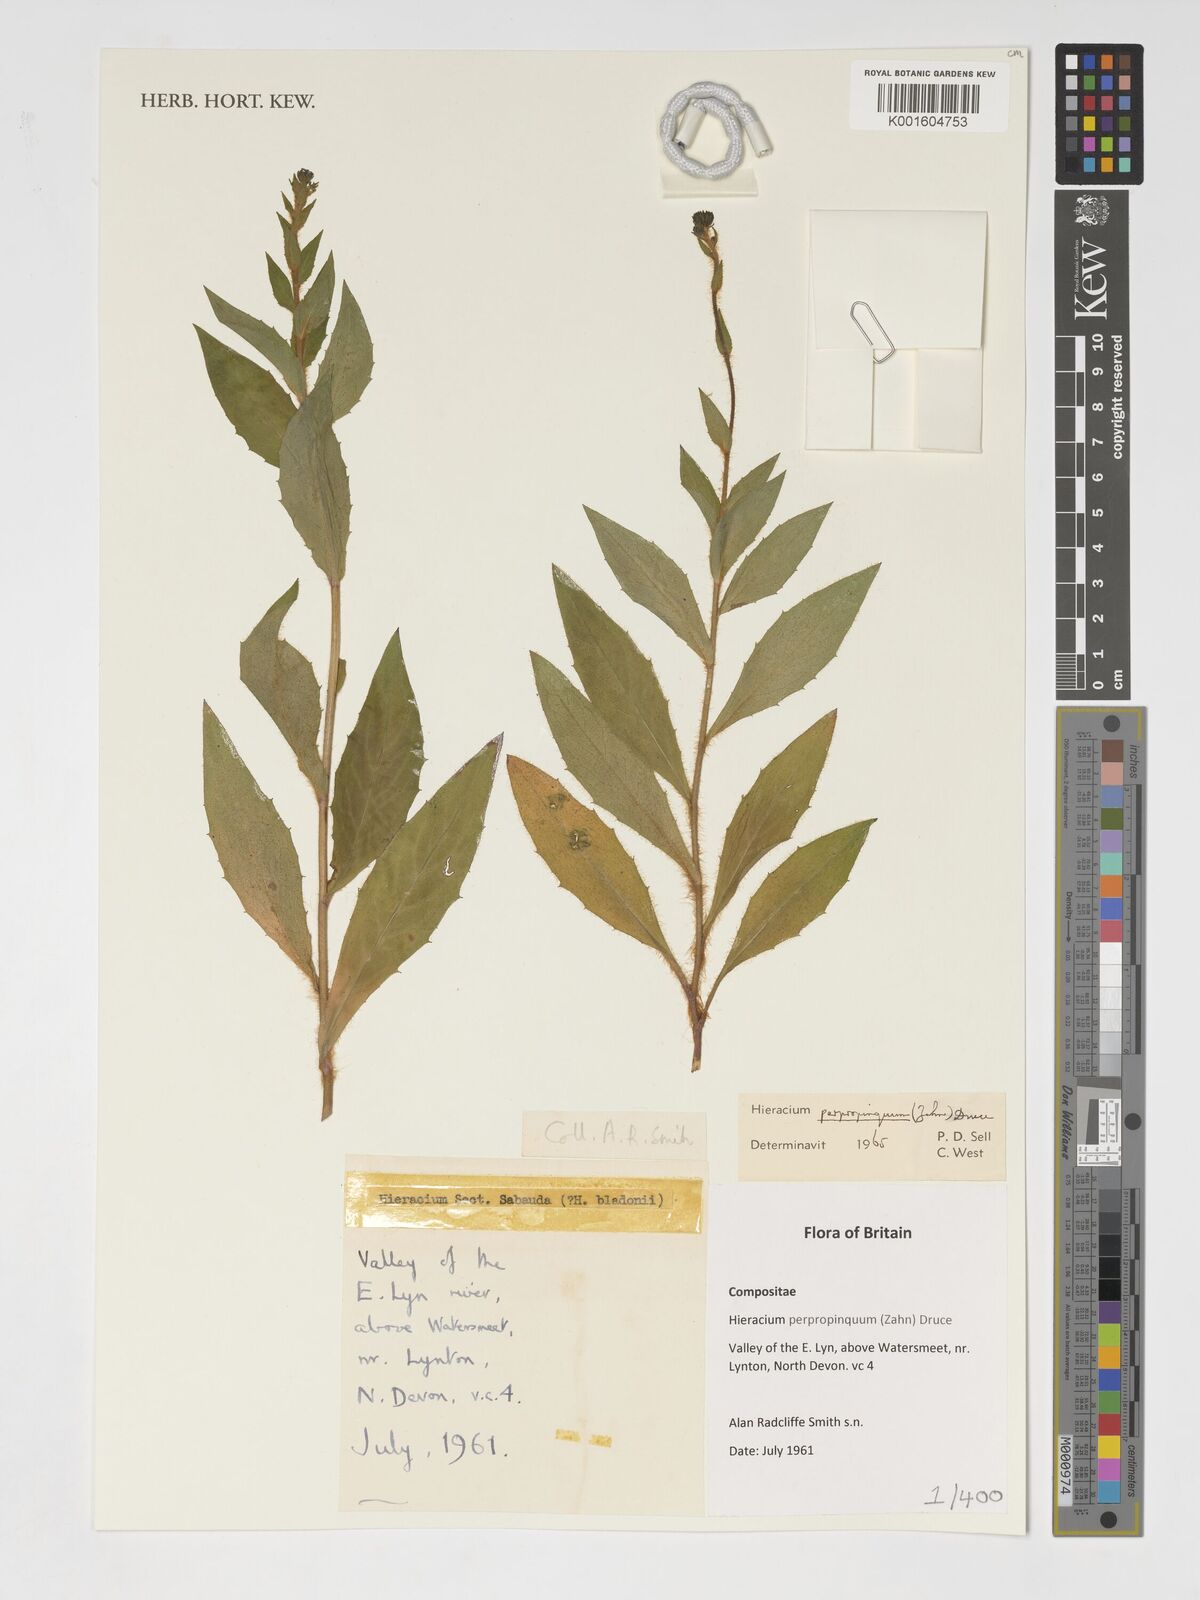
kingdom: Plantae
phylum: Tracheophyta
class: Magnoliopsida
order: Asterales
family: Asteraceae
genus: Hieracium
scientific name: Hieracium sabaudum
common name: New england hawkweed
